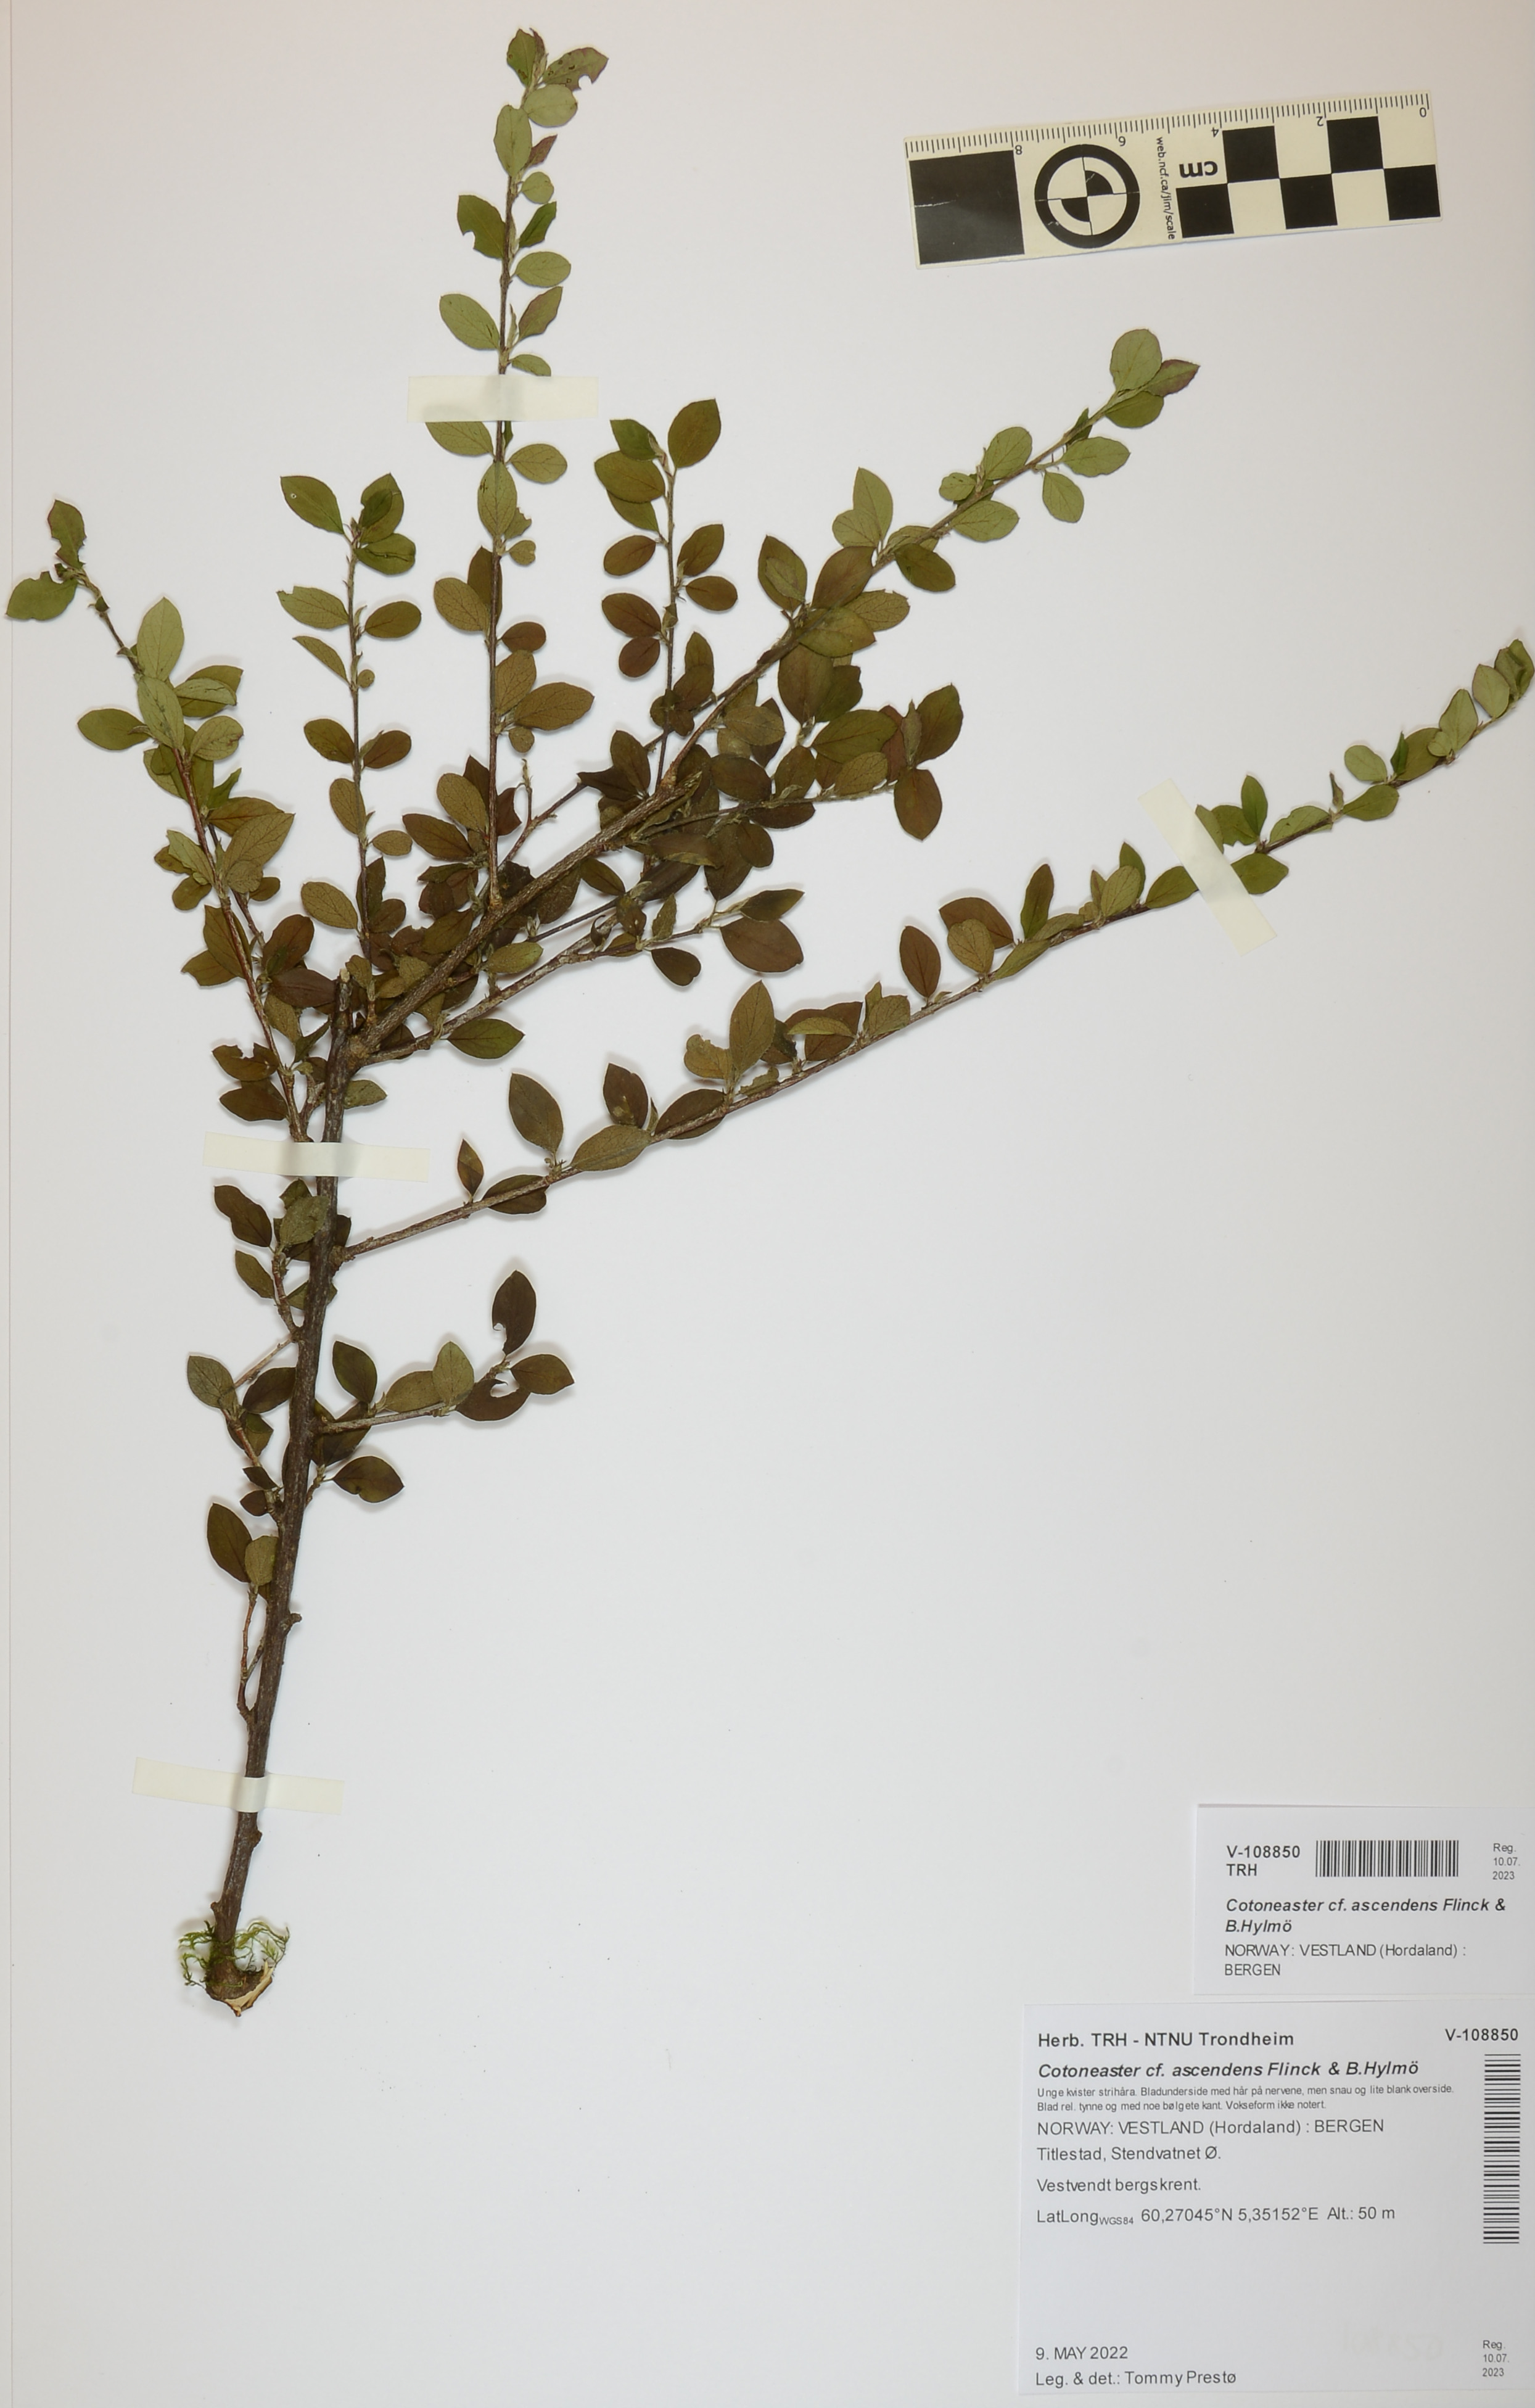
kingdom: Plantae
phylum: Tracheophyta
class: Magnoliopsida
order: Rosales
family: Rosaceae
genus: Cotoneaster
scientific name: Cotoneaster ascendens
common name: Ascending cotoneaster
